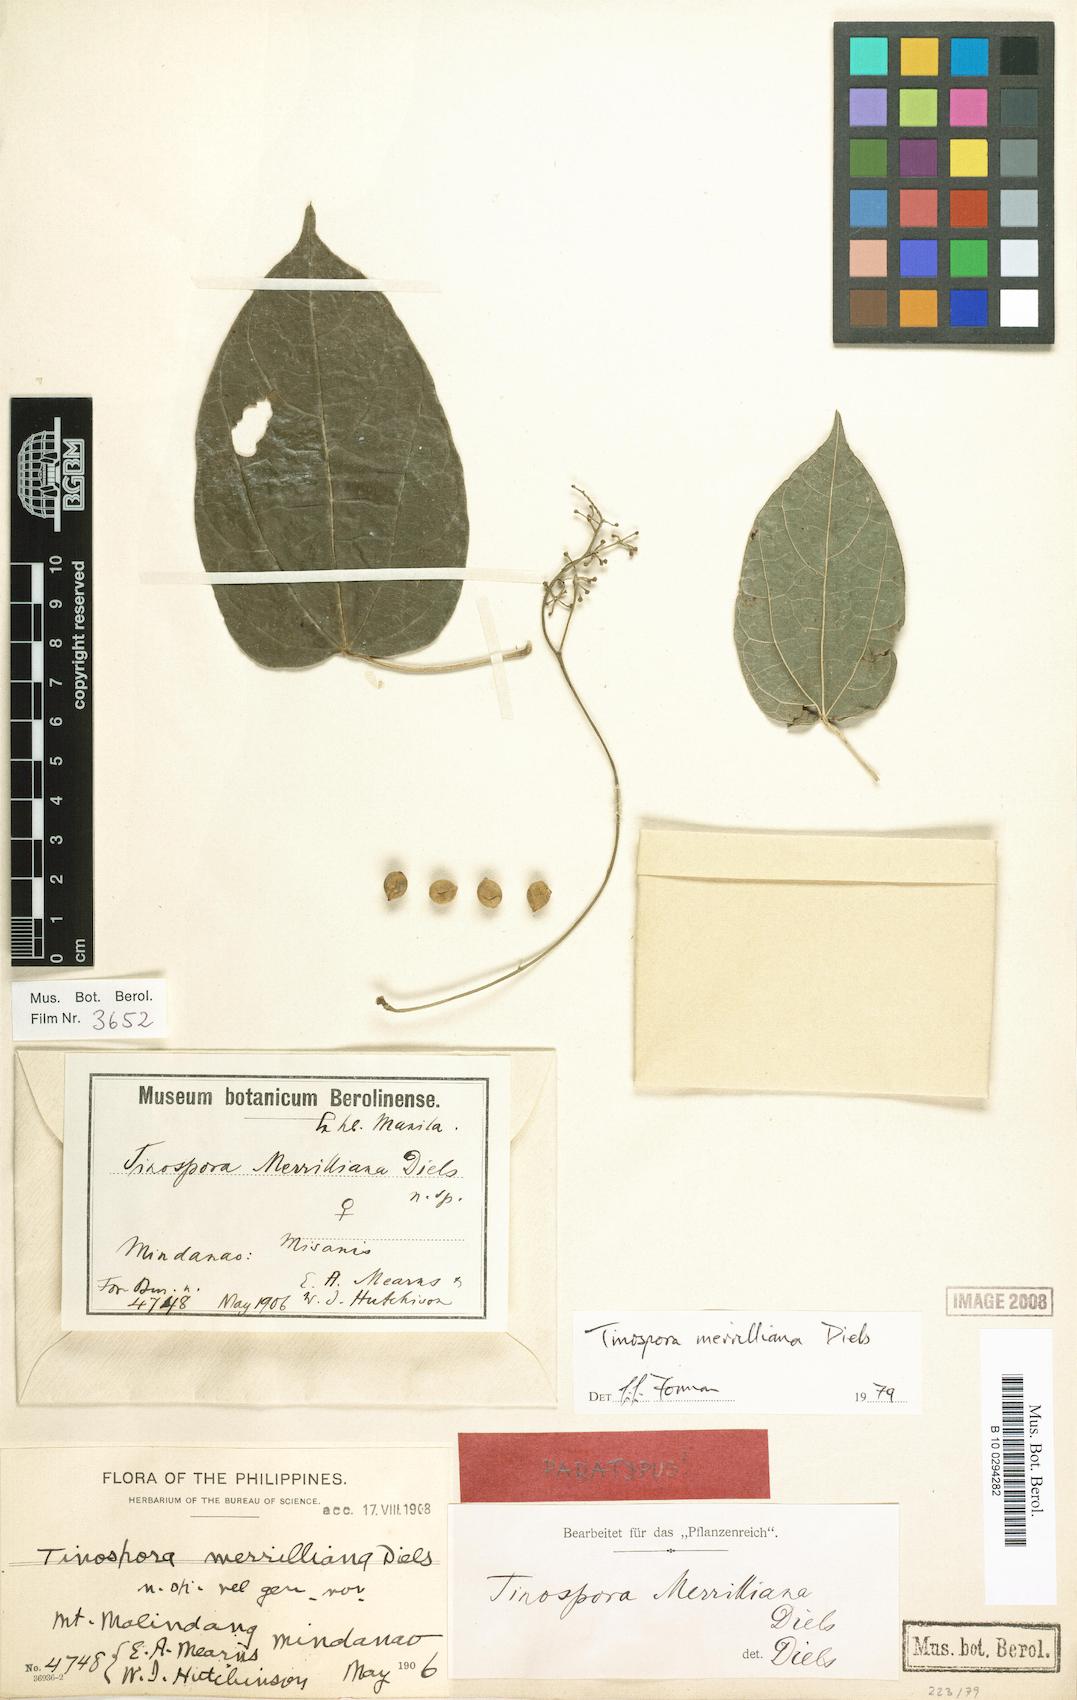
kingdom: Plantae
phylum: Tracheophyta
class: Magnoliopsida
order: Ranunculales
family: Menispermaceae
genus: Tinospora
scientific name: Tinospora merrilliana
